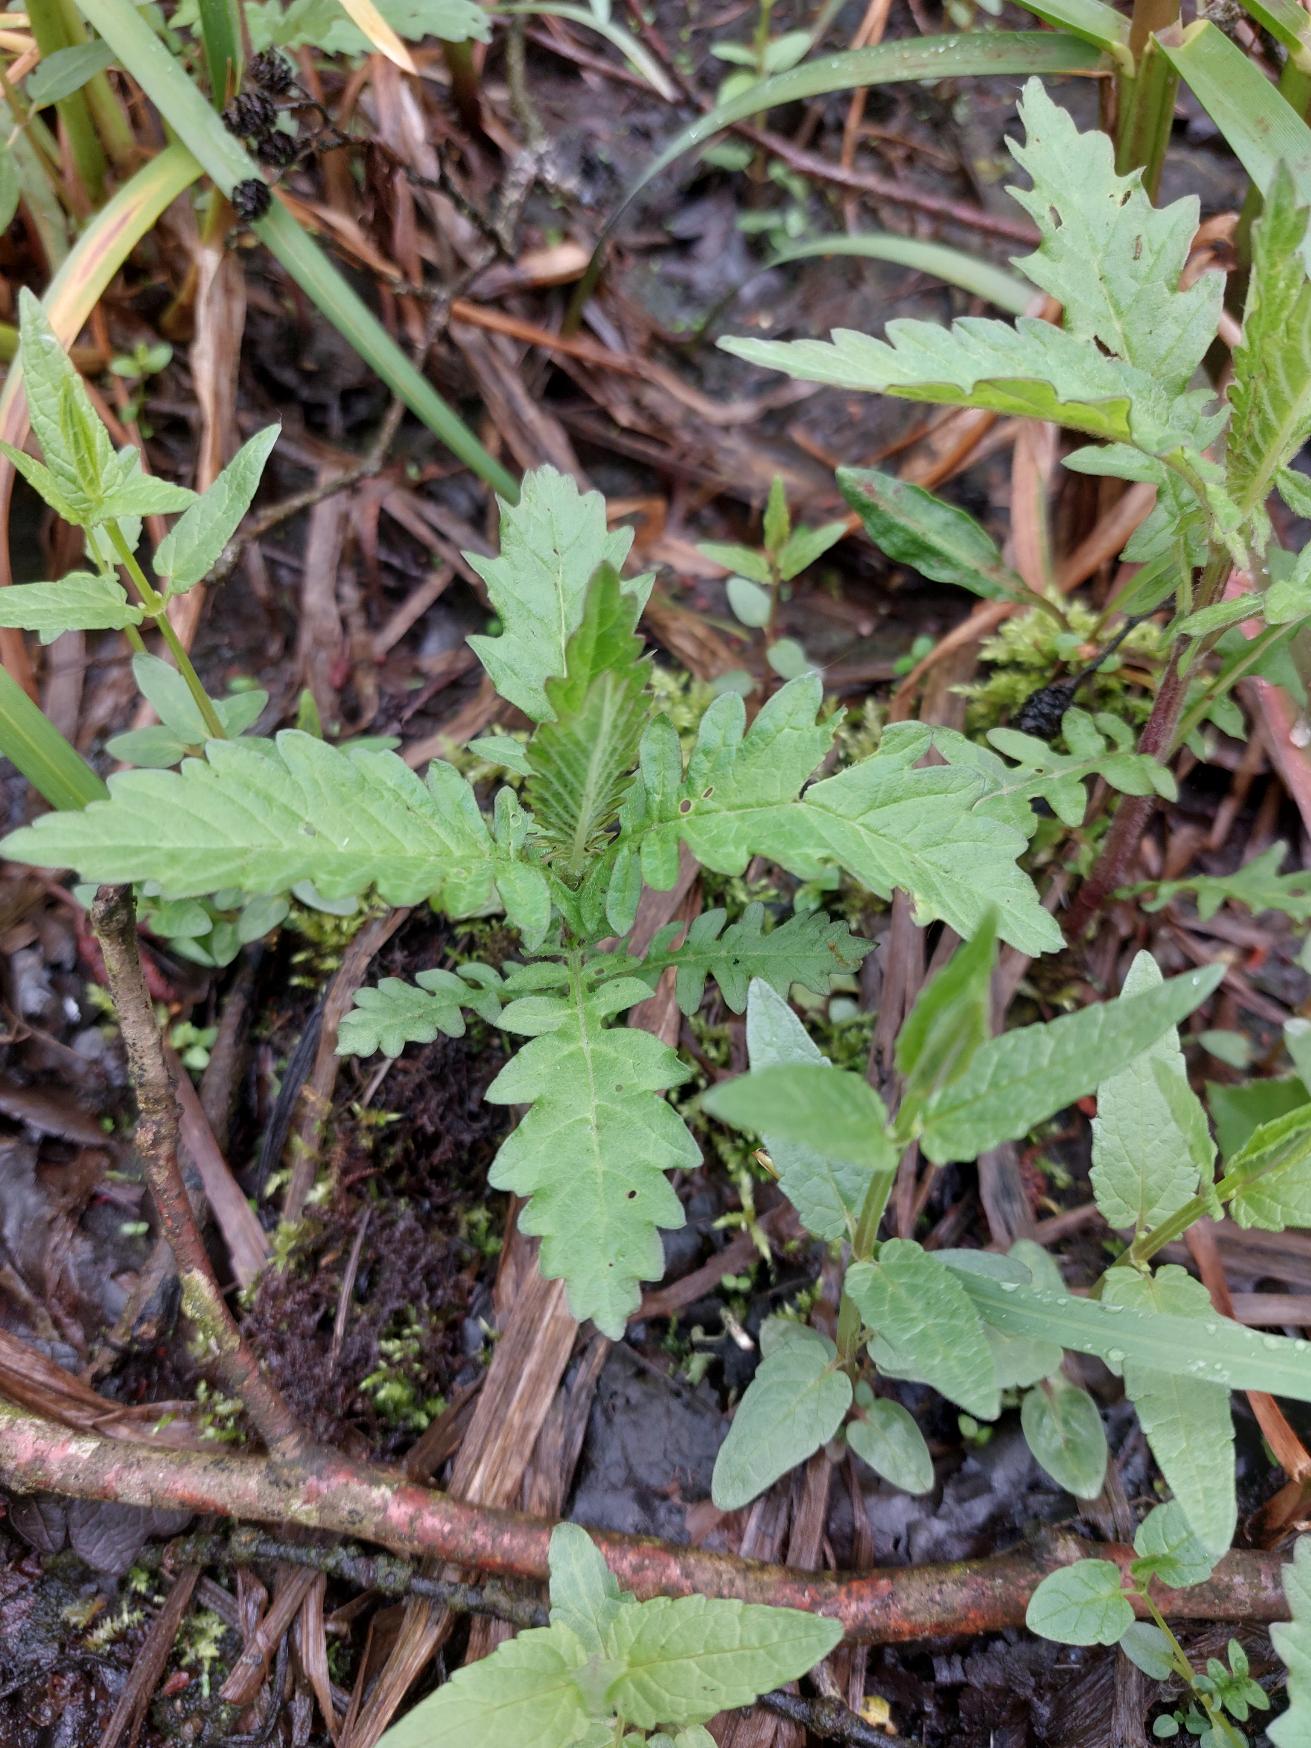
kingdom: Plantae
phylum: Tracheophyta
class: Magnoliopsida
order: Lamiales
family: Lamiaceae
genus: Lycopus
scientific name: Lycopus europaeus
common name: Sværtevæld
